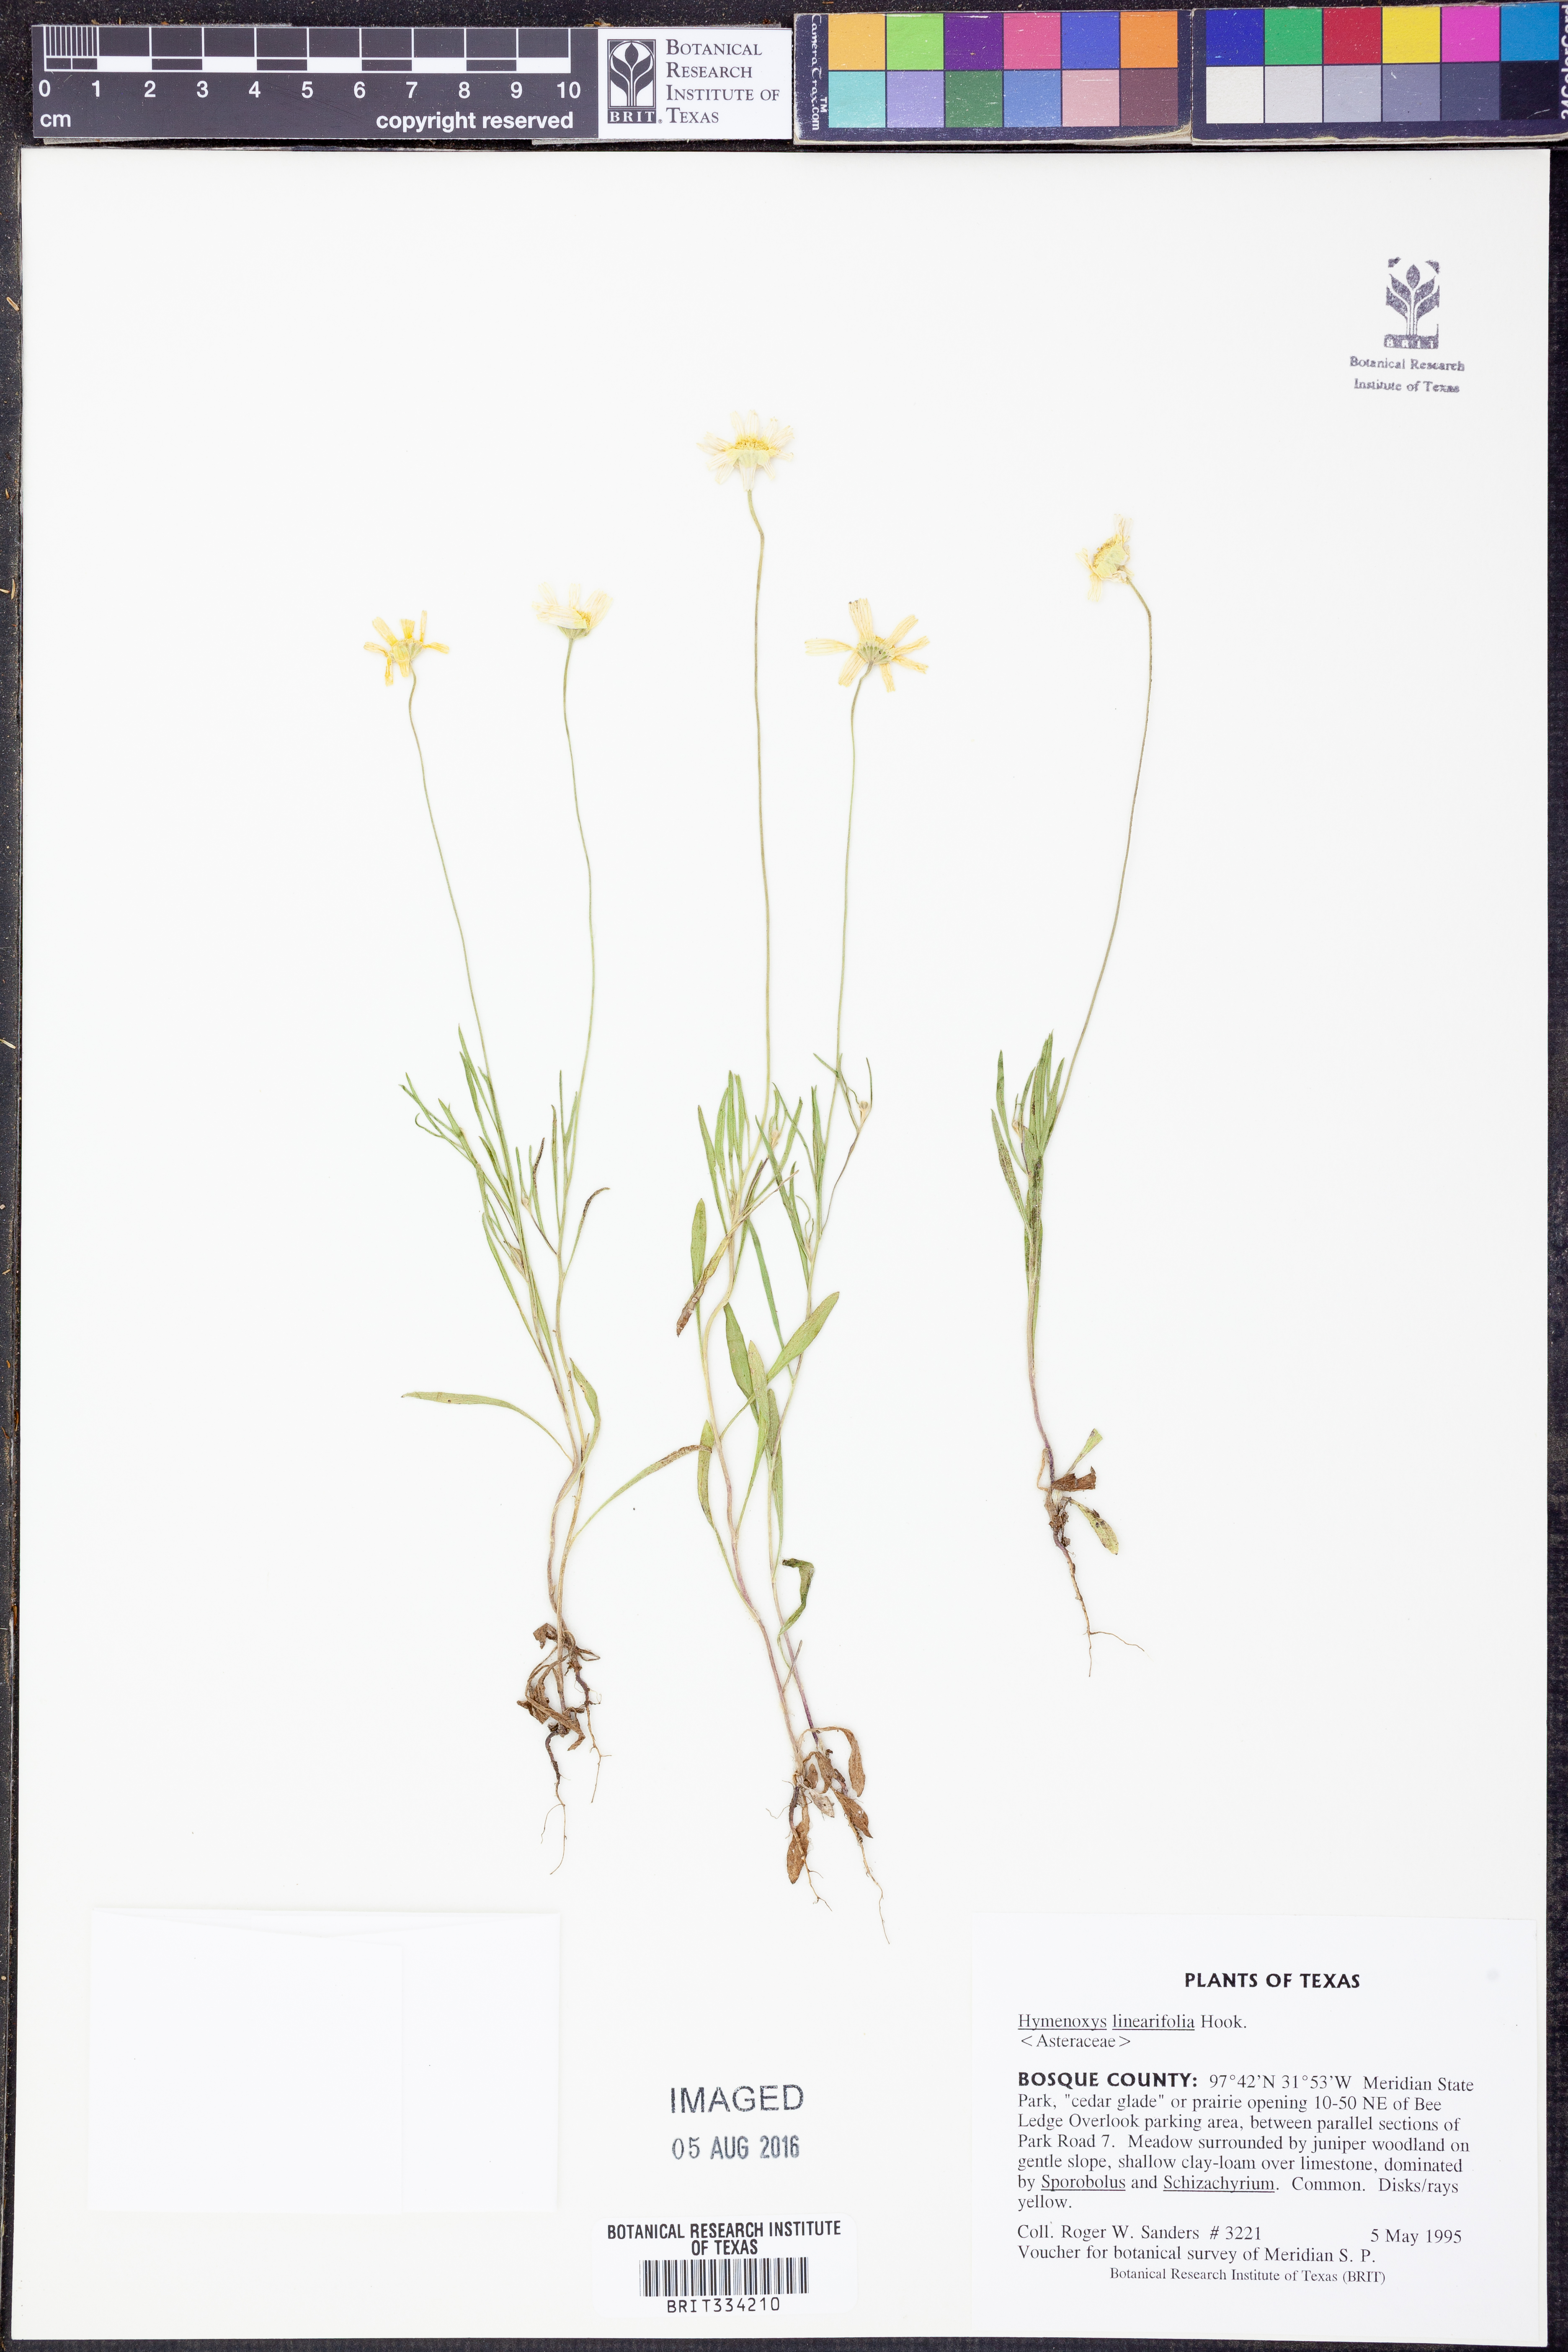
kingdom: Plantae
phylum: Tracheophyta
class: Magnoliopsida
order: Asterales
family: Asteraceae
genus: Tetraneuris
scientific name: Tetraneuris linearifolia
